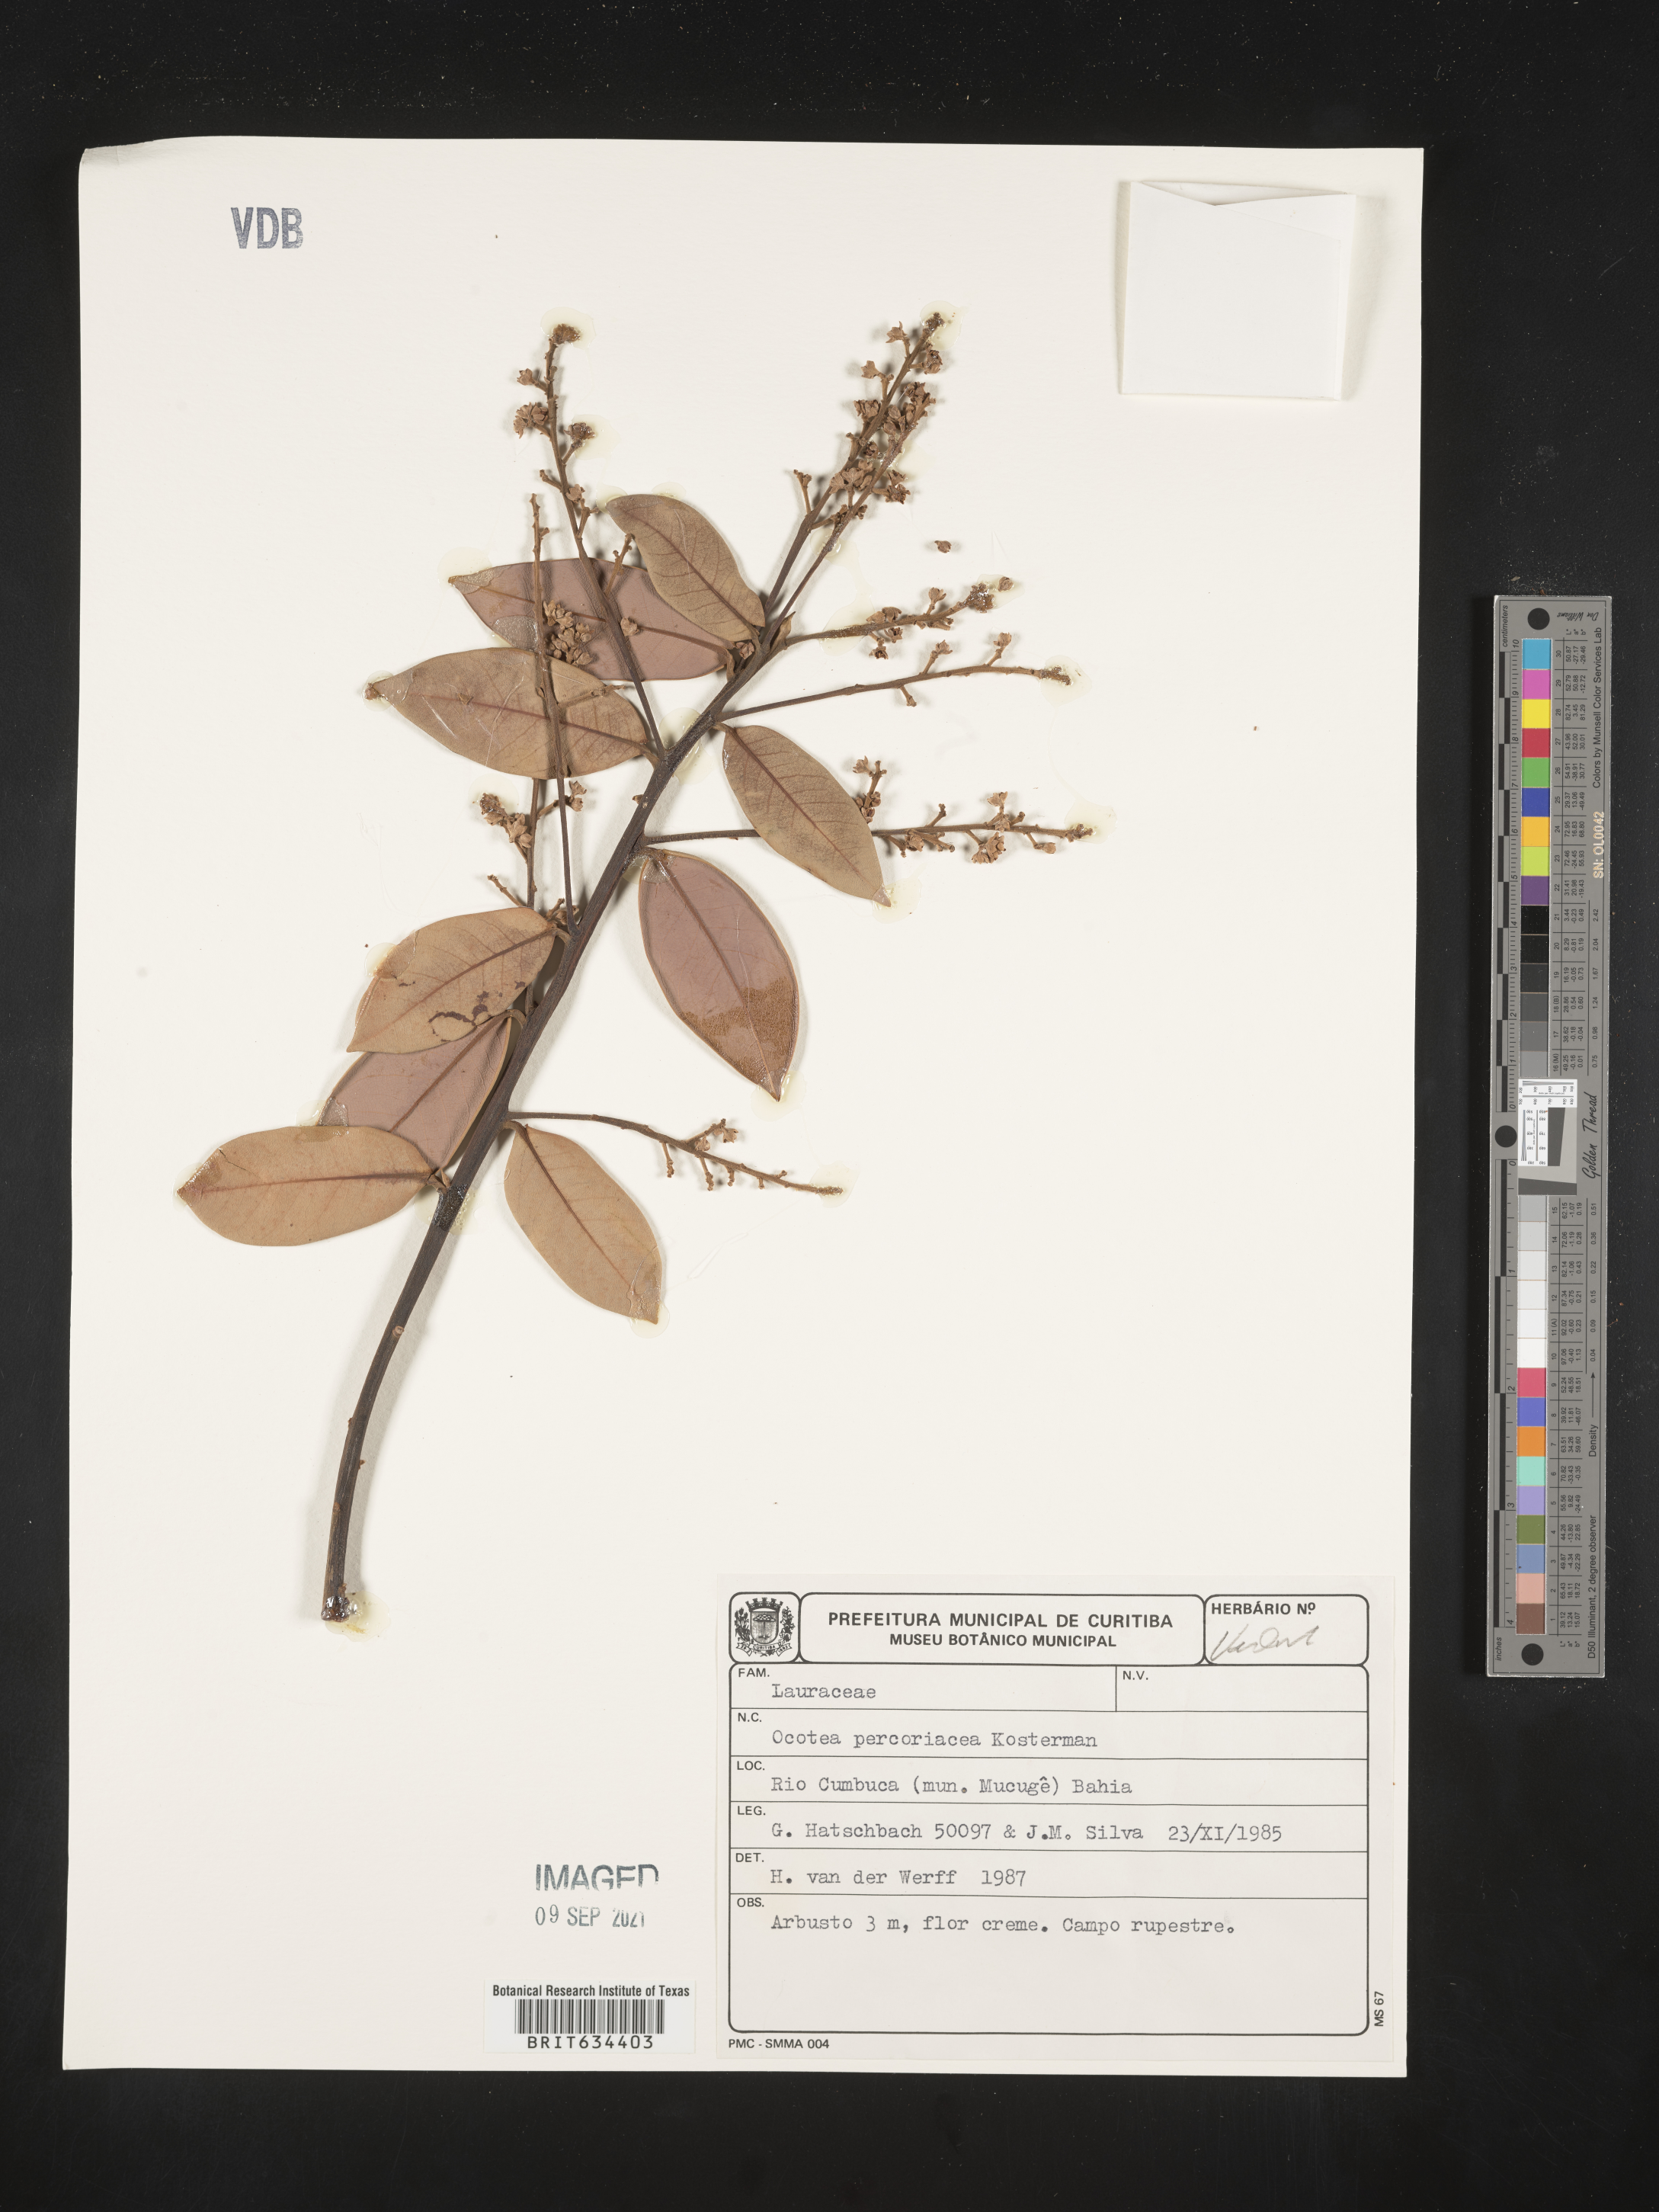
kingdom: Plantae
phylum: Tracheophyta
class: Magnoliopsida
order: Laurales
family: Lauraceae
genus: Ocotea
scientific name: Ocotea
